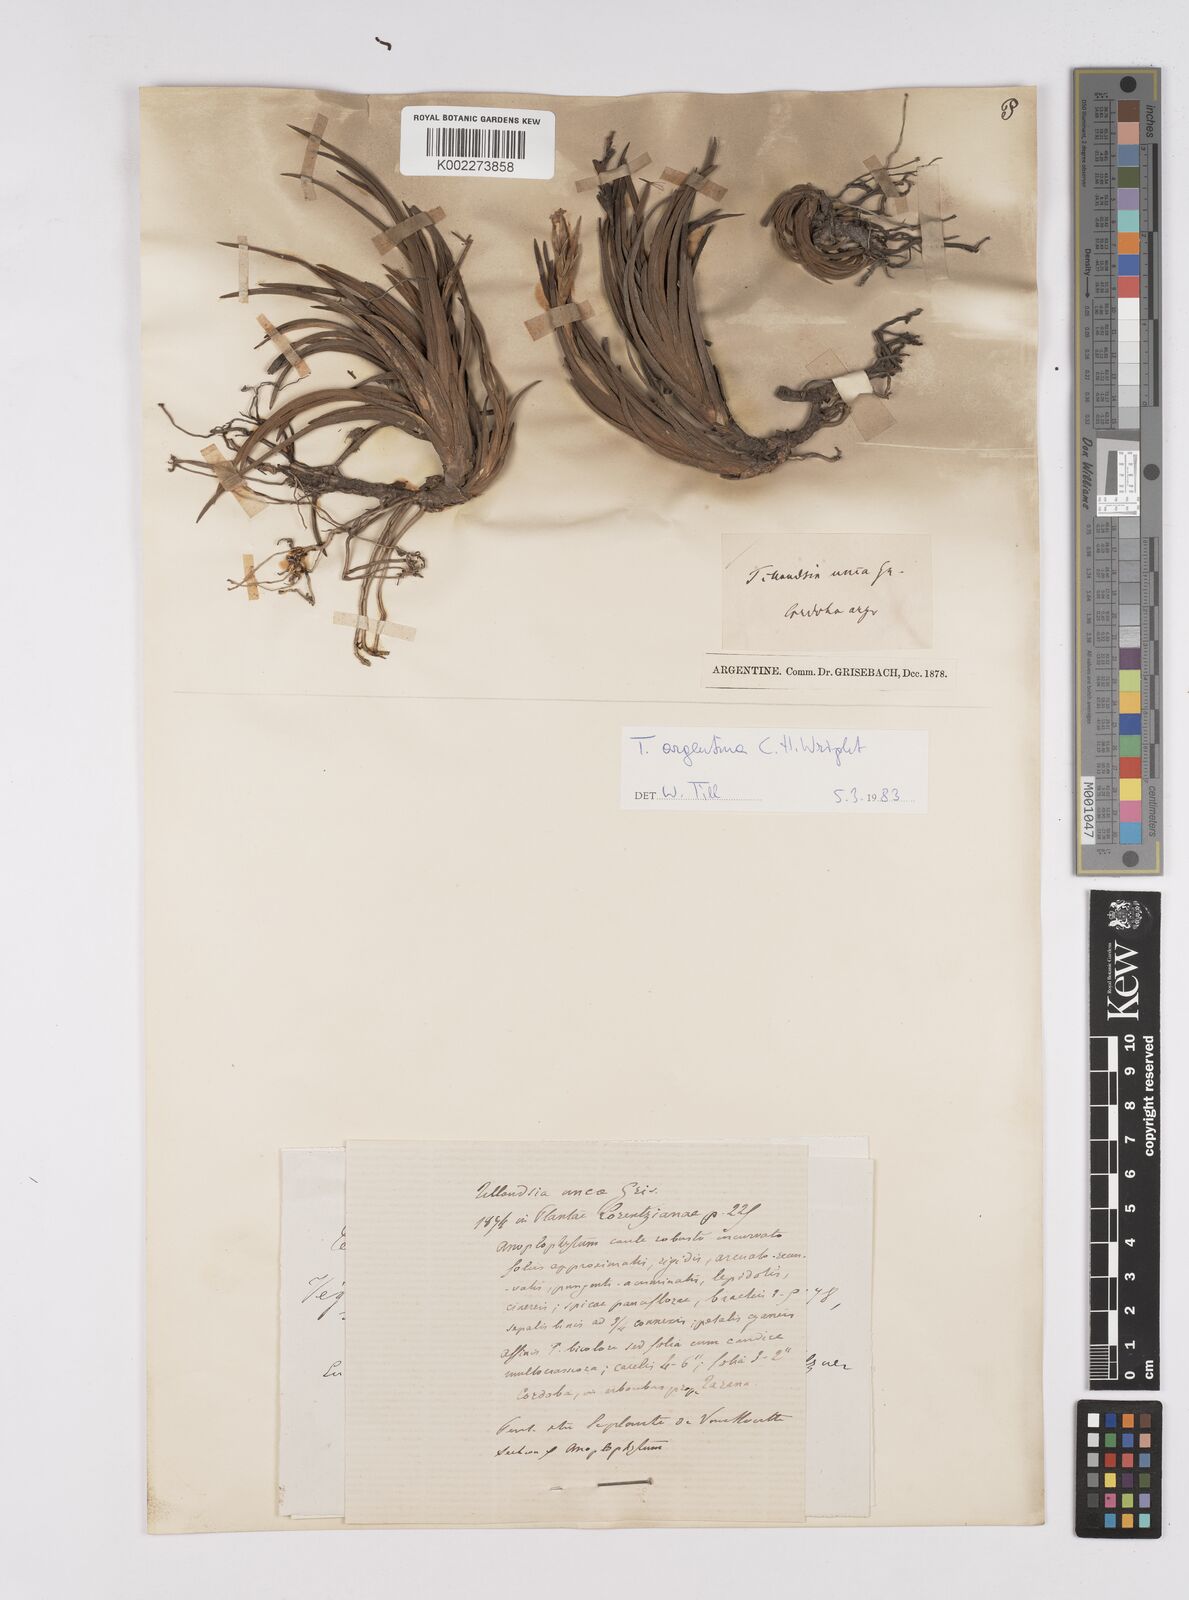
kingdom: Plantae
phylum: Tracheophyta
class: Liliopsida
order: Poales
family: Bromeliaceae
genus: Tillandsia
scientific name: Tillandsia argentina
